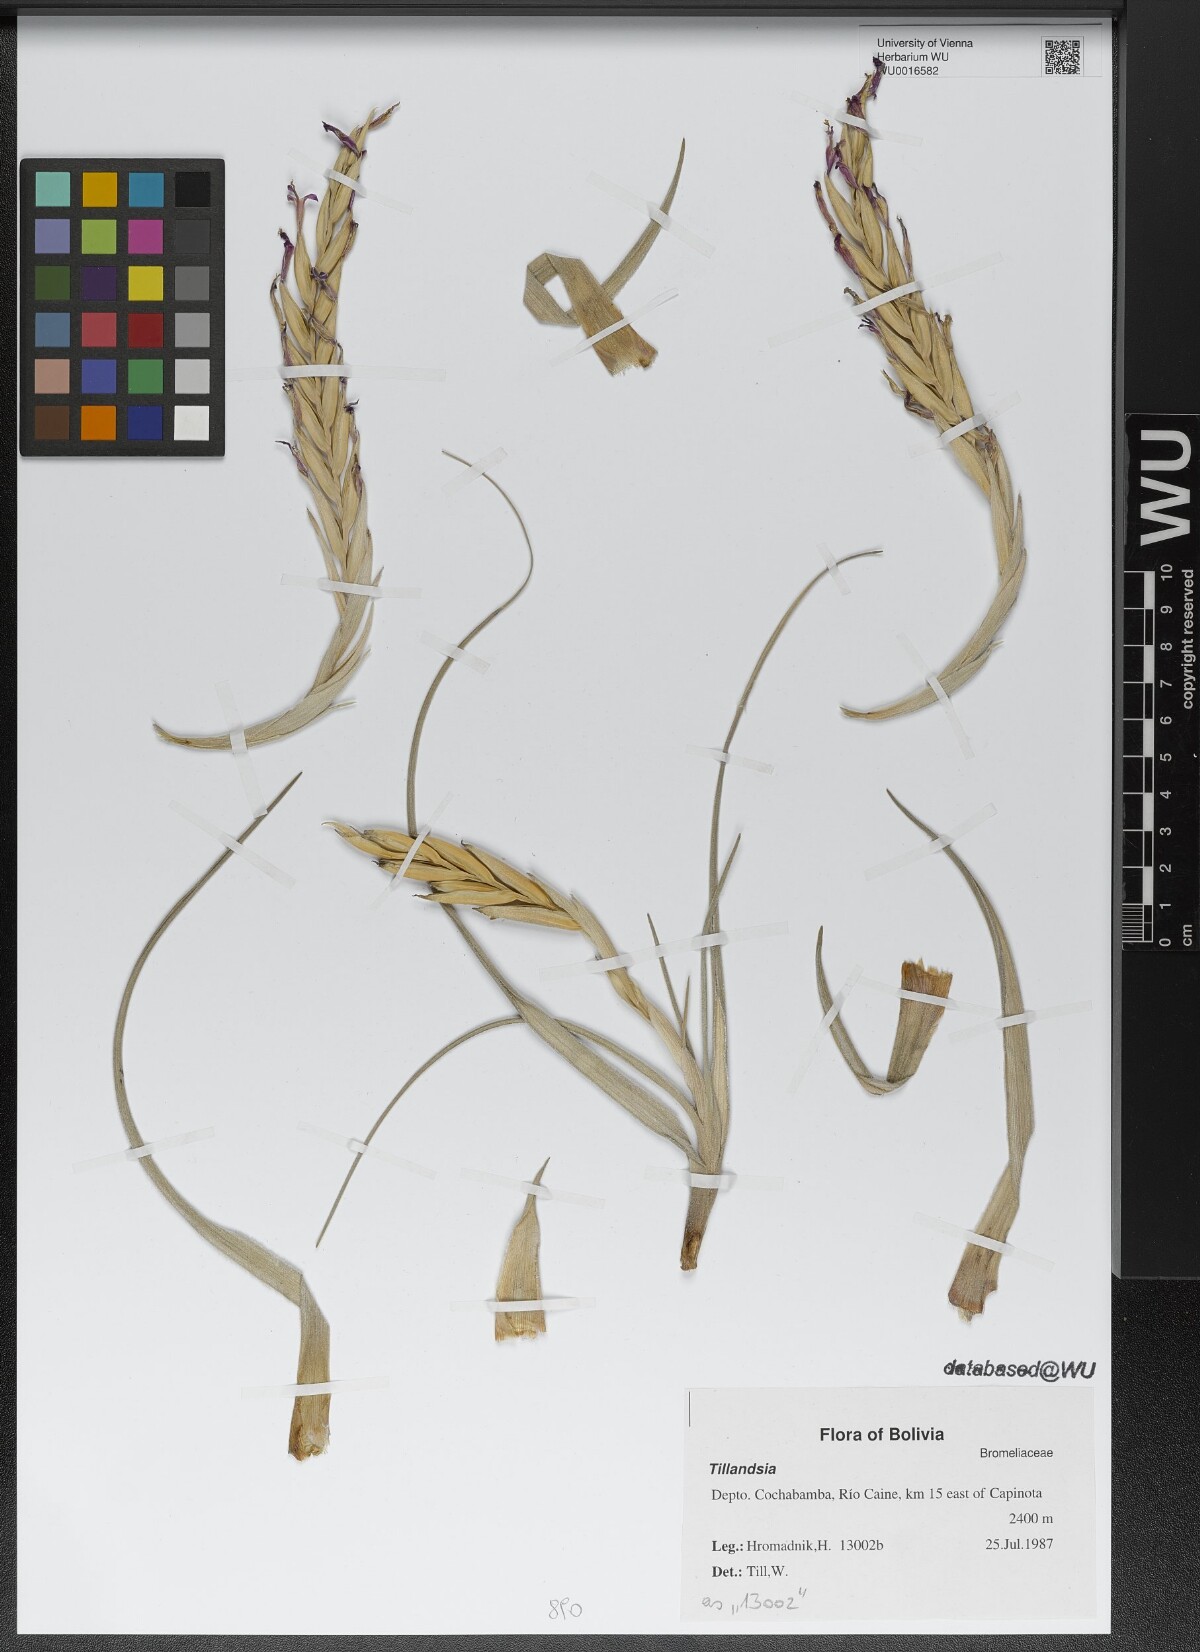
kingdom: Plantae
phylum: Tracheophyta
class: Liliopsida
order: Poales
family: Bromeliaceae
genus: Tillandsia
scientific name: Tillandsia
